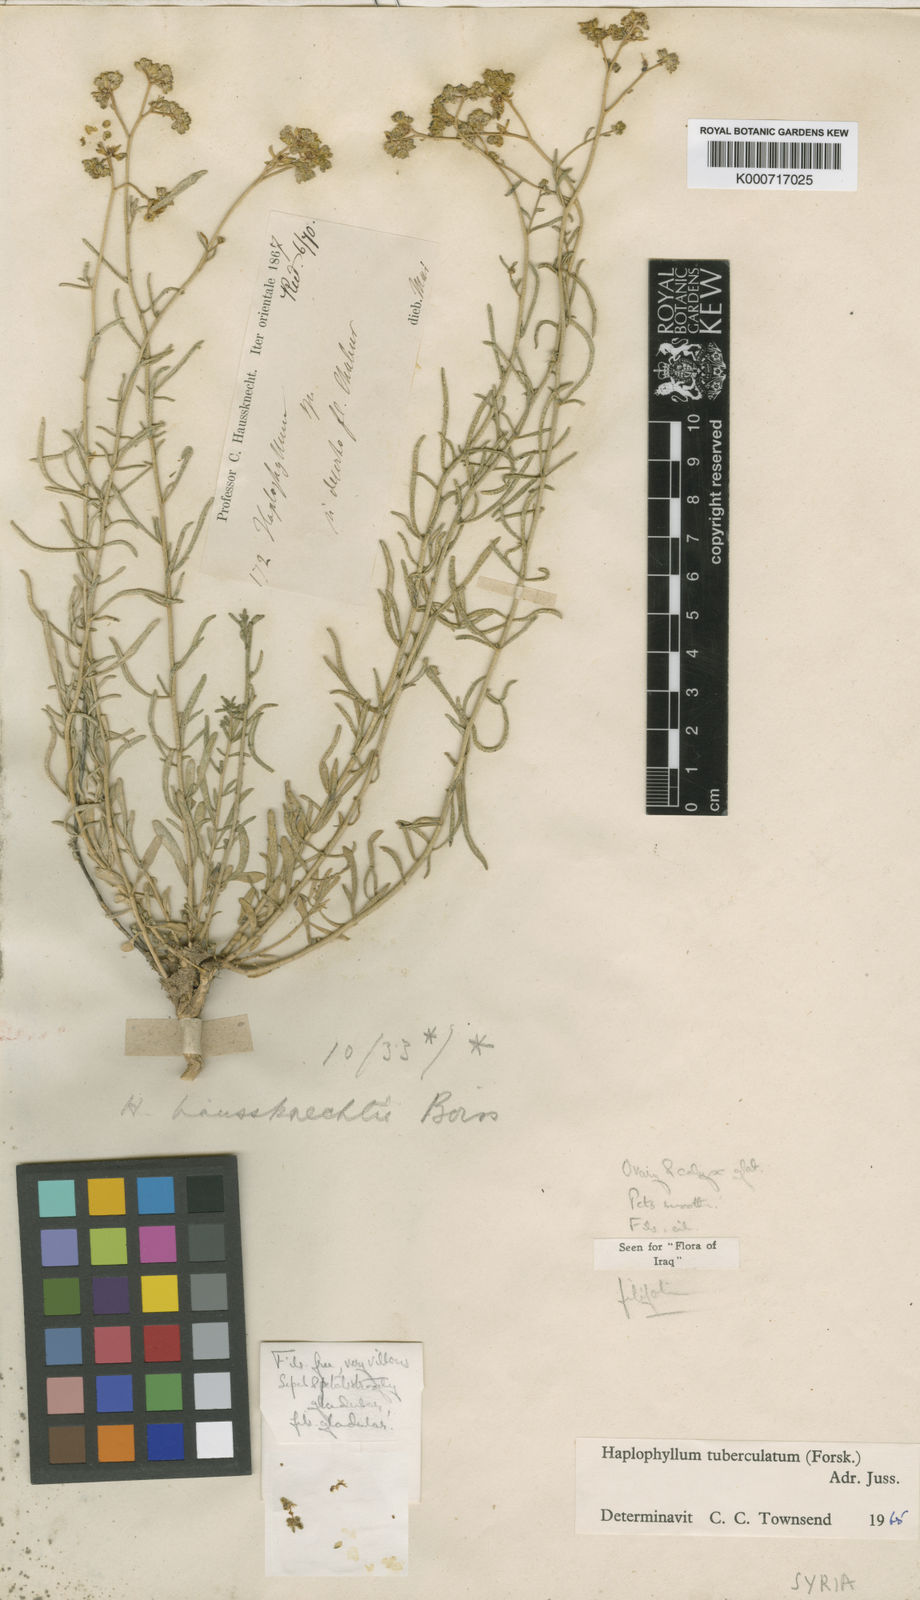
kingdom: Plantae
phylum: Tracheophyta
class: Magnoliopsida
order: Sapindales
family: Rutaceae
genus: Haplophyllum
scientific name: Haplophyllum tuberculatum
